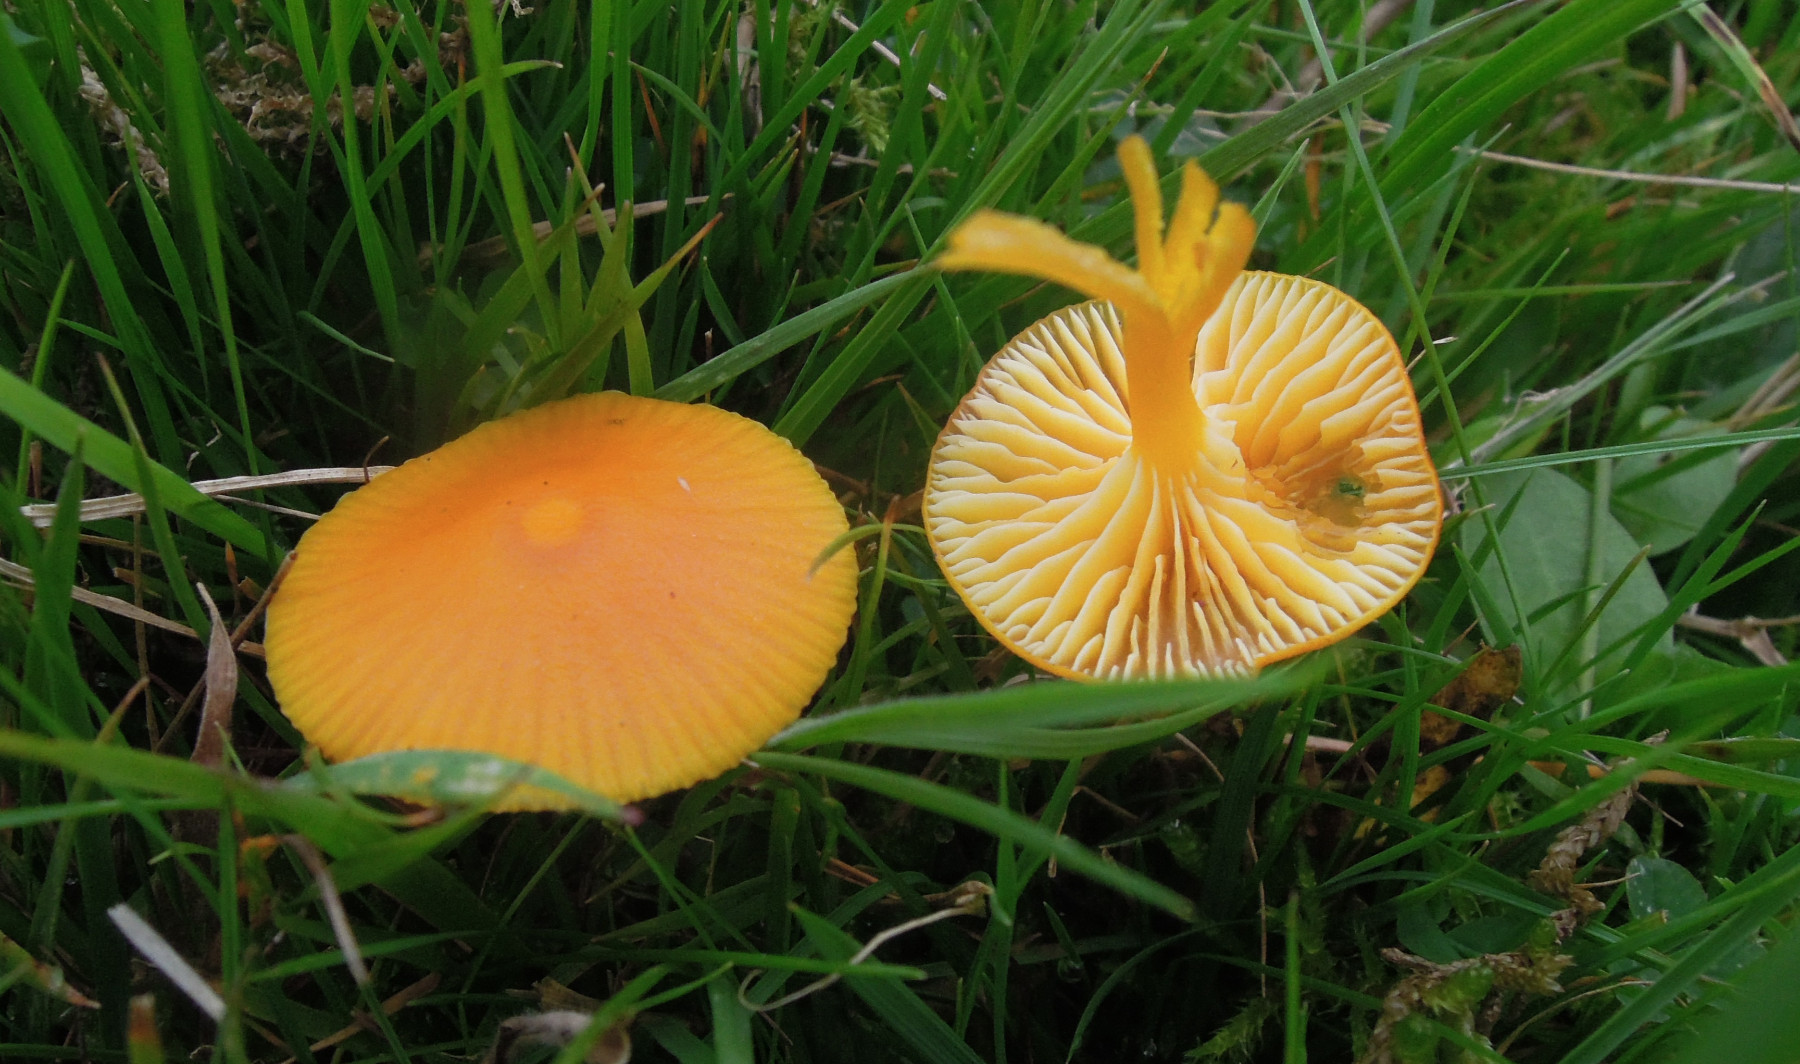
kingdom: Fungi
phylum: Basidiomycota
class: Agaricomycetes
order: Agaricales
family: Hygrophoraceae
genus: Hygrocybe
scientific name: Hygrocybe ceracea
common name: voksgul vokshat
